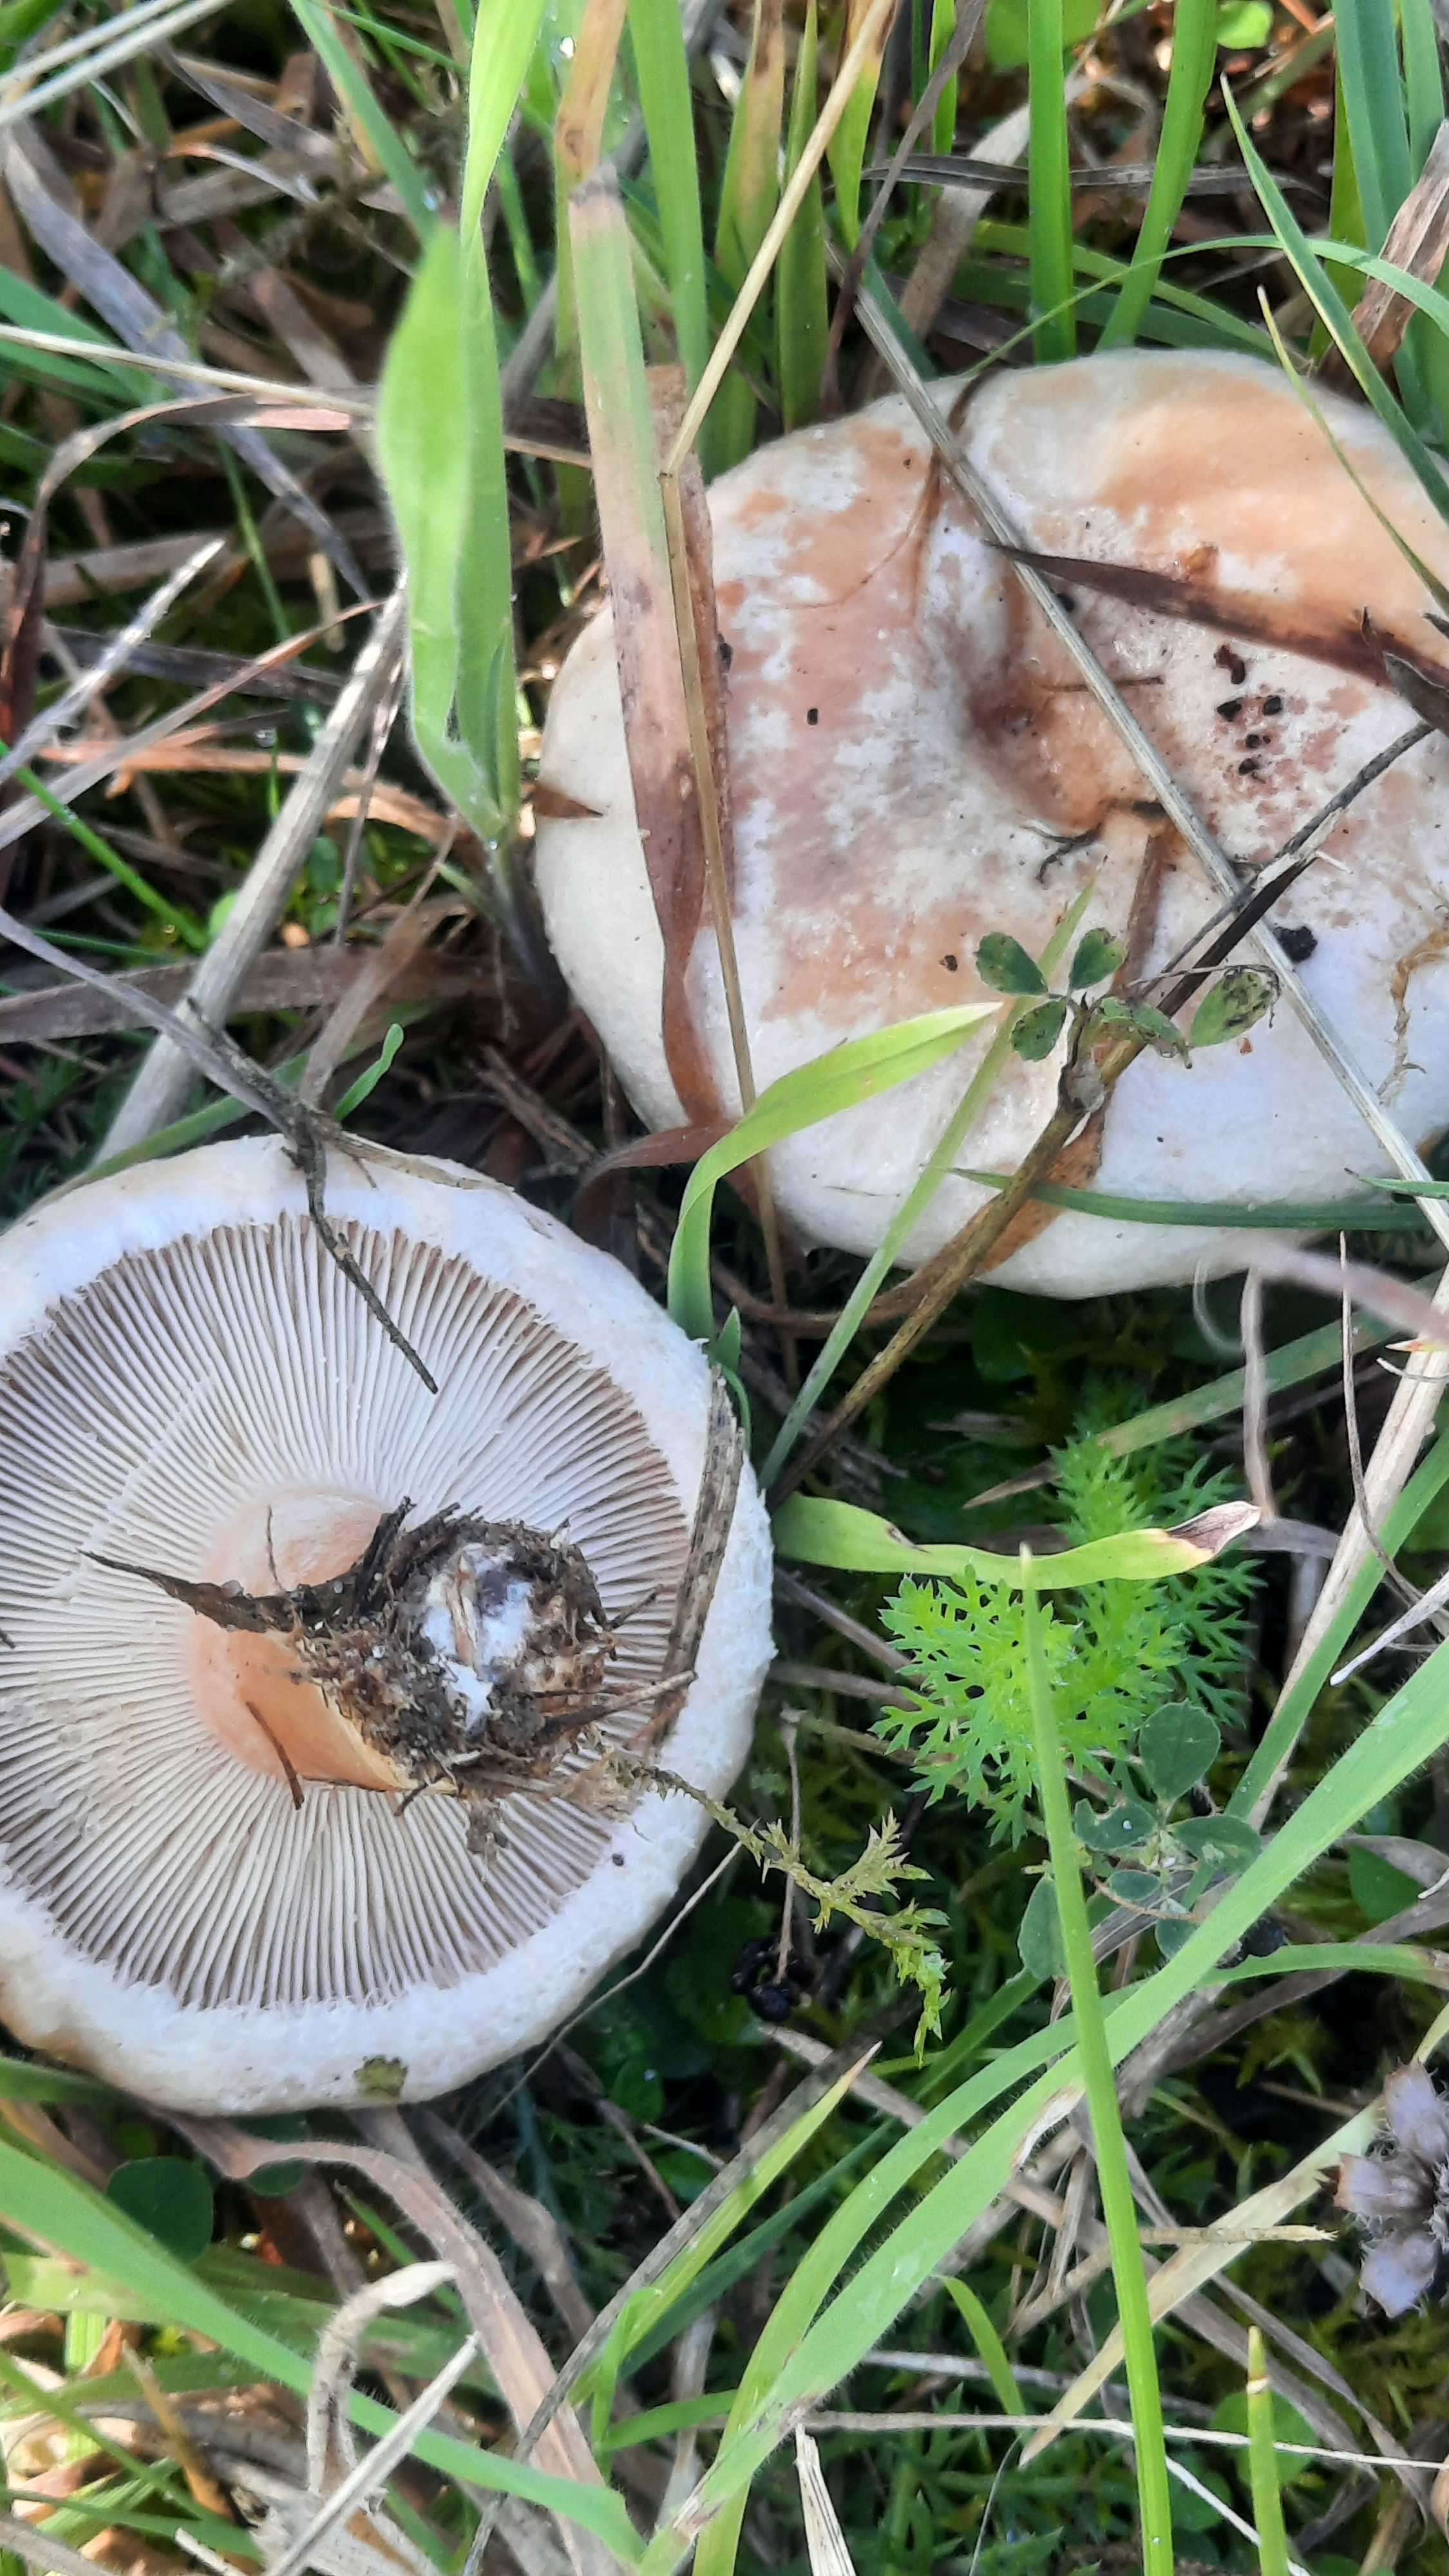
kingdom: Fungi
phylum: Basidiomycota
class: Agaricomycetes
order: Russulales
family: Russulaceae
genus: Lactarius
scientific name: Lactarius pubescens
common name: dunet mælkehat
